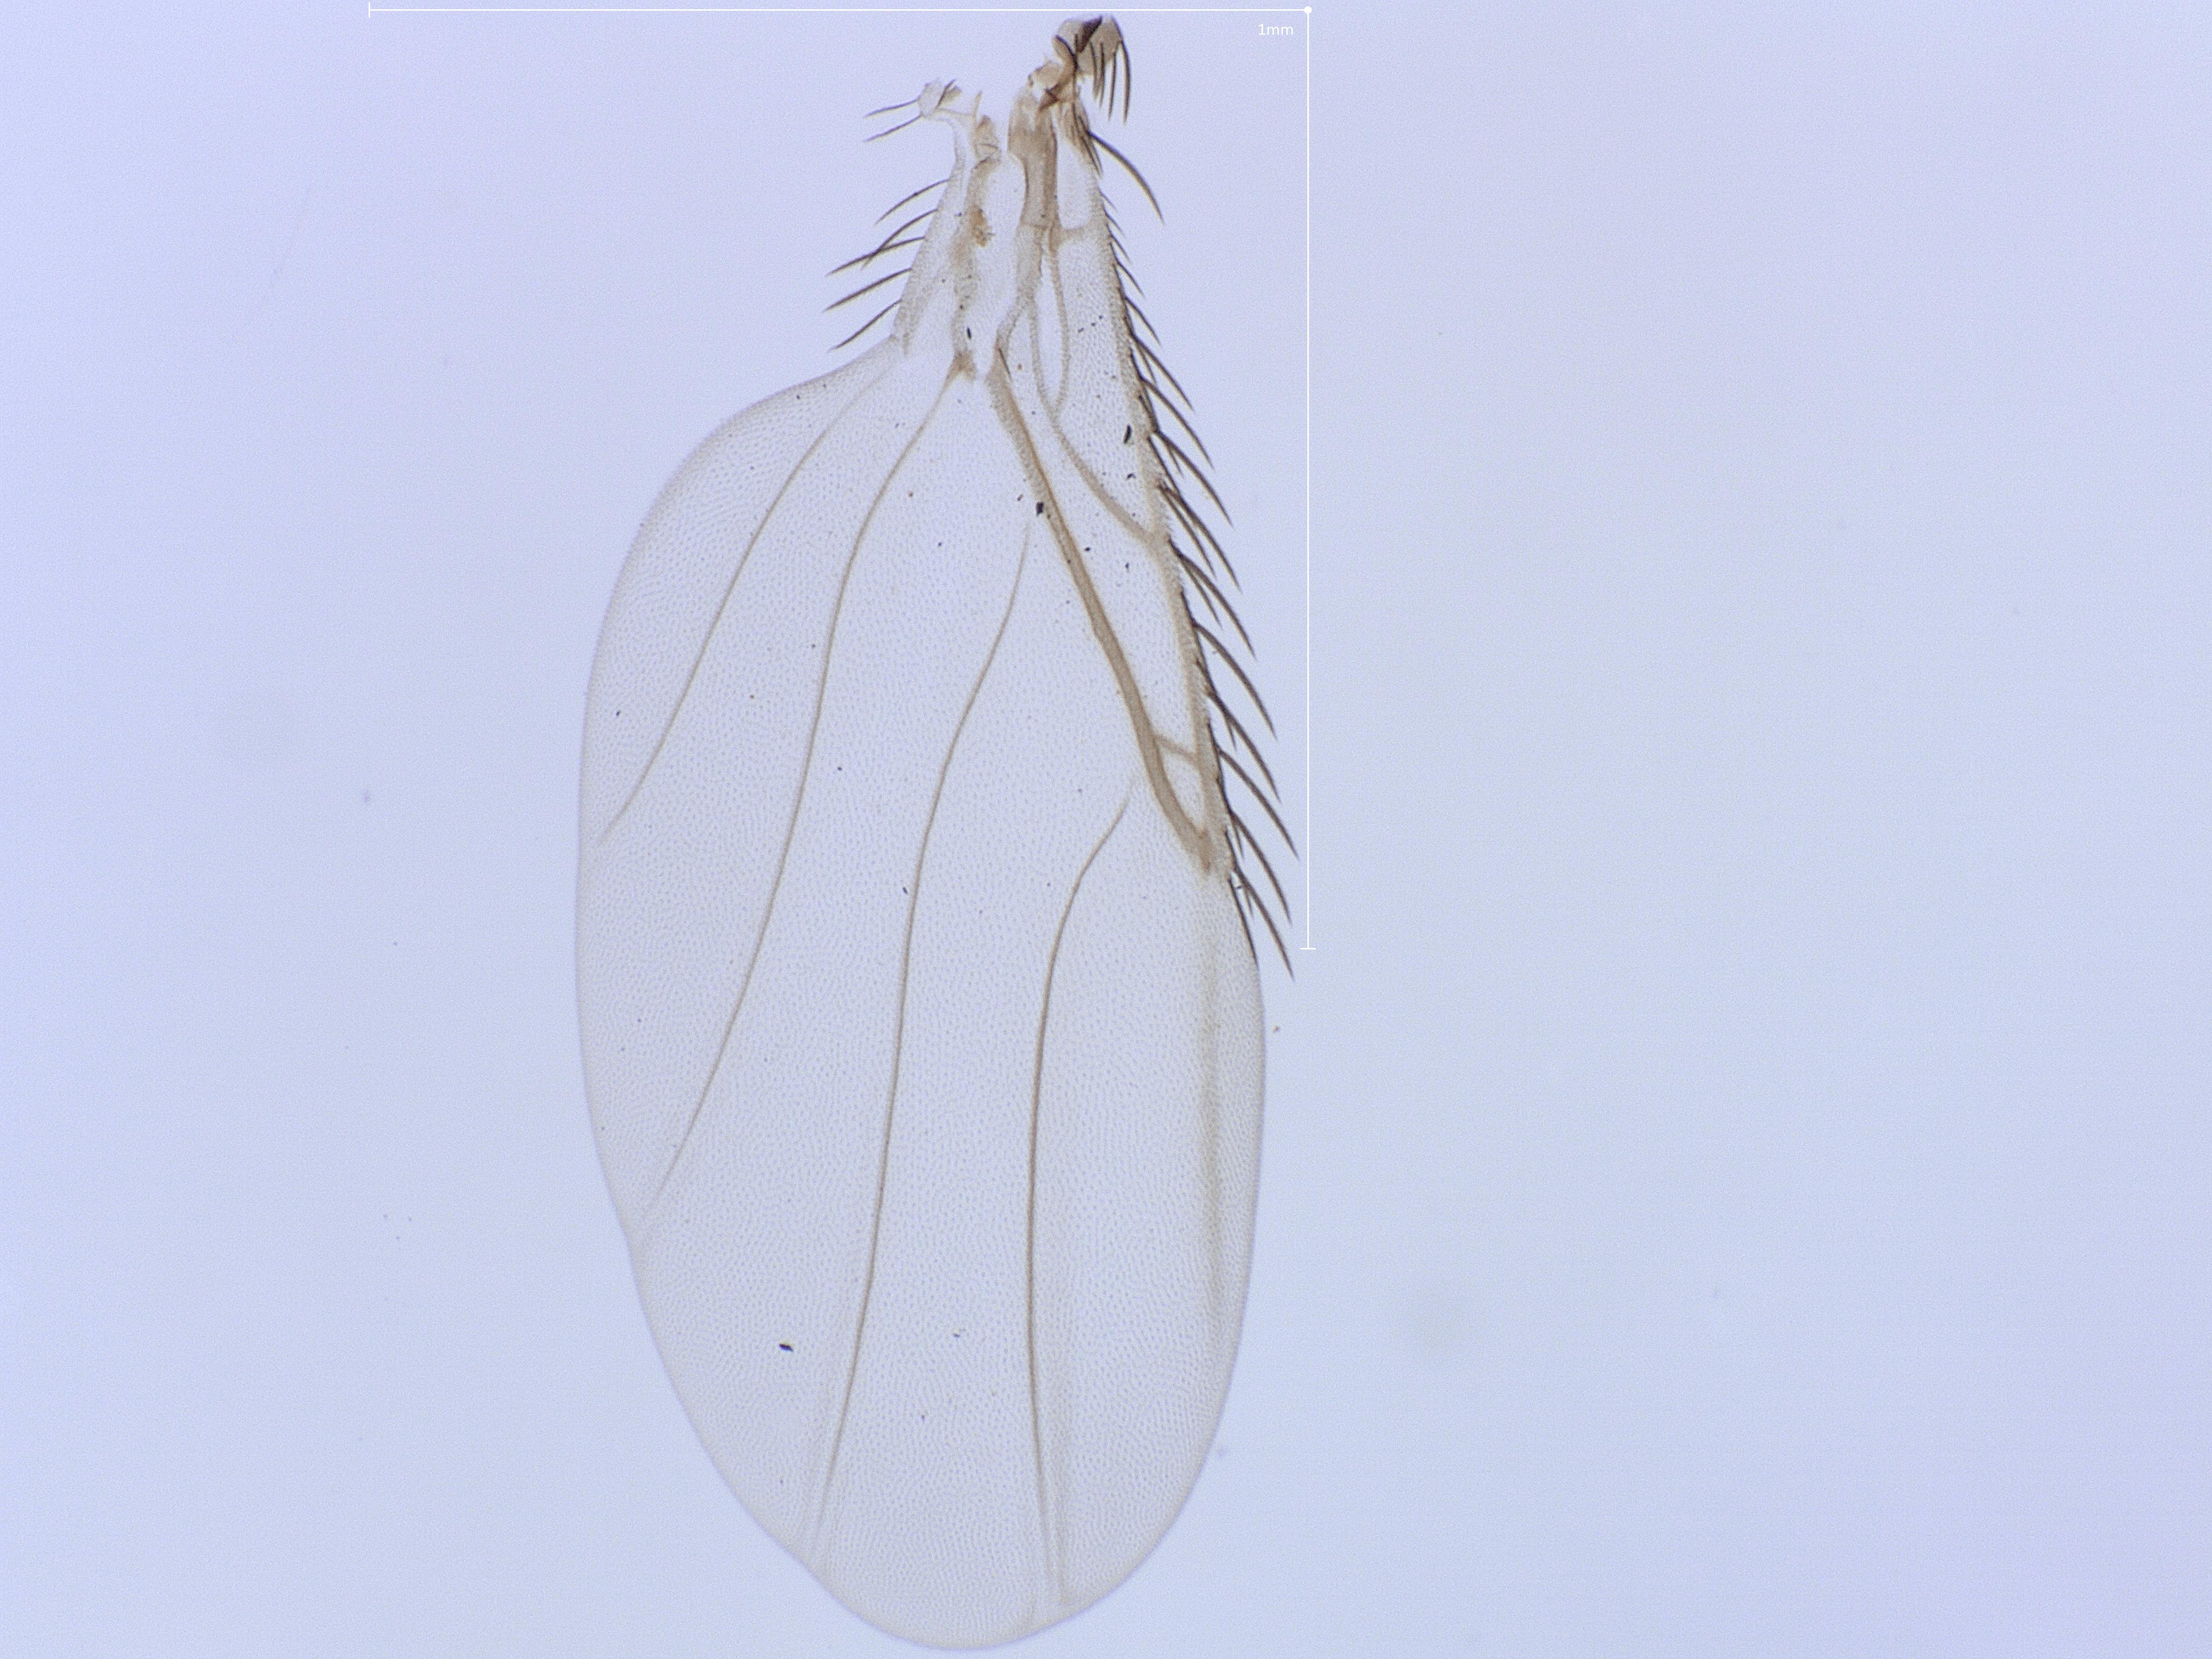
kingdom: Animalia
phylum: Arthropoda
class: Insecta
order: Diptera
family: Phoridae
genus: Megaselia
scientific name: Megaselia vernalis
